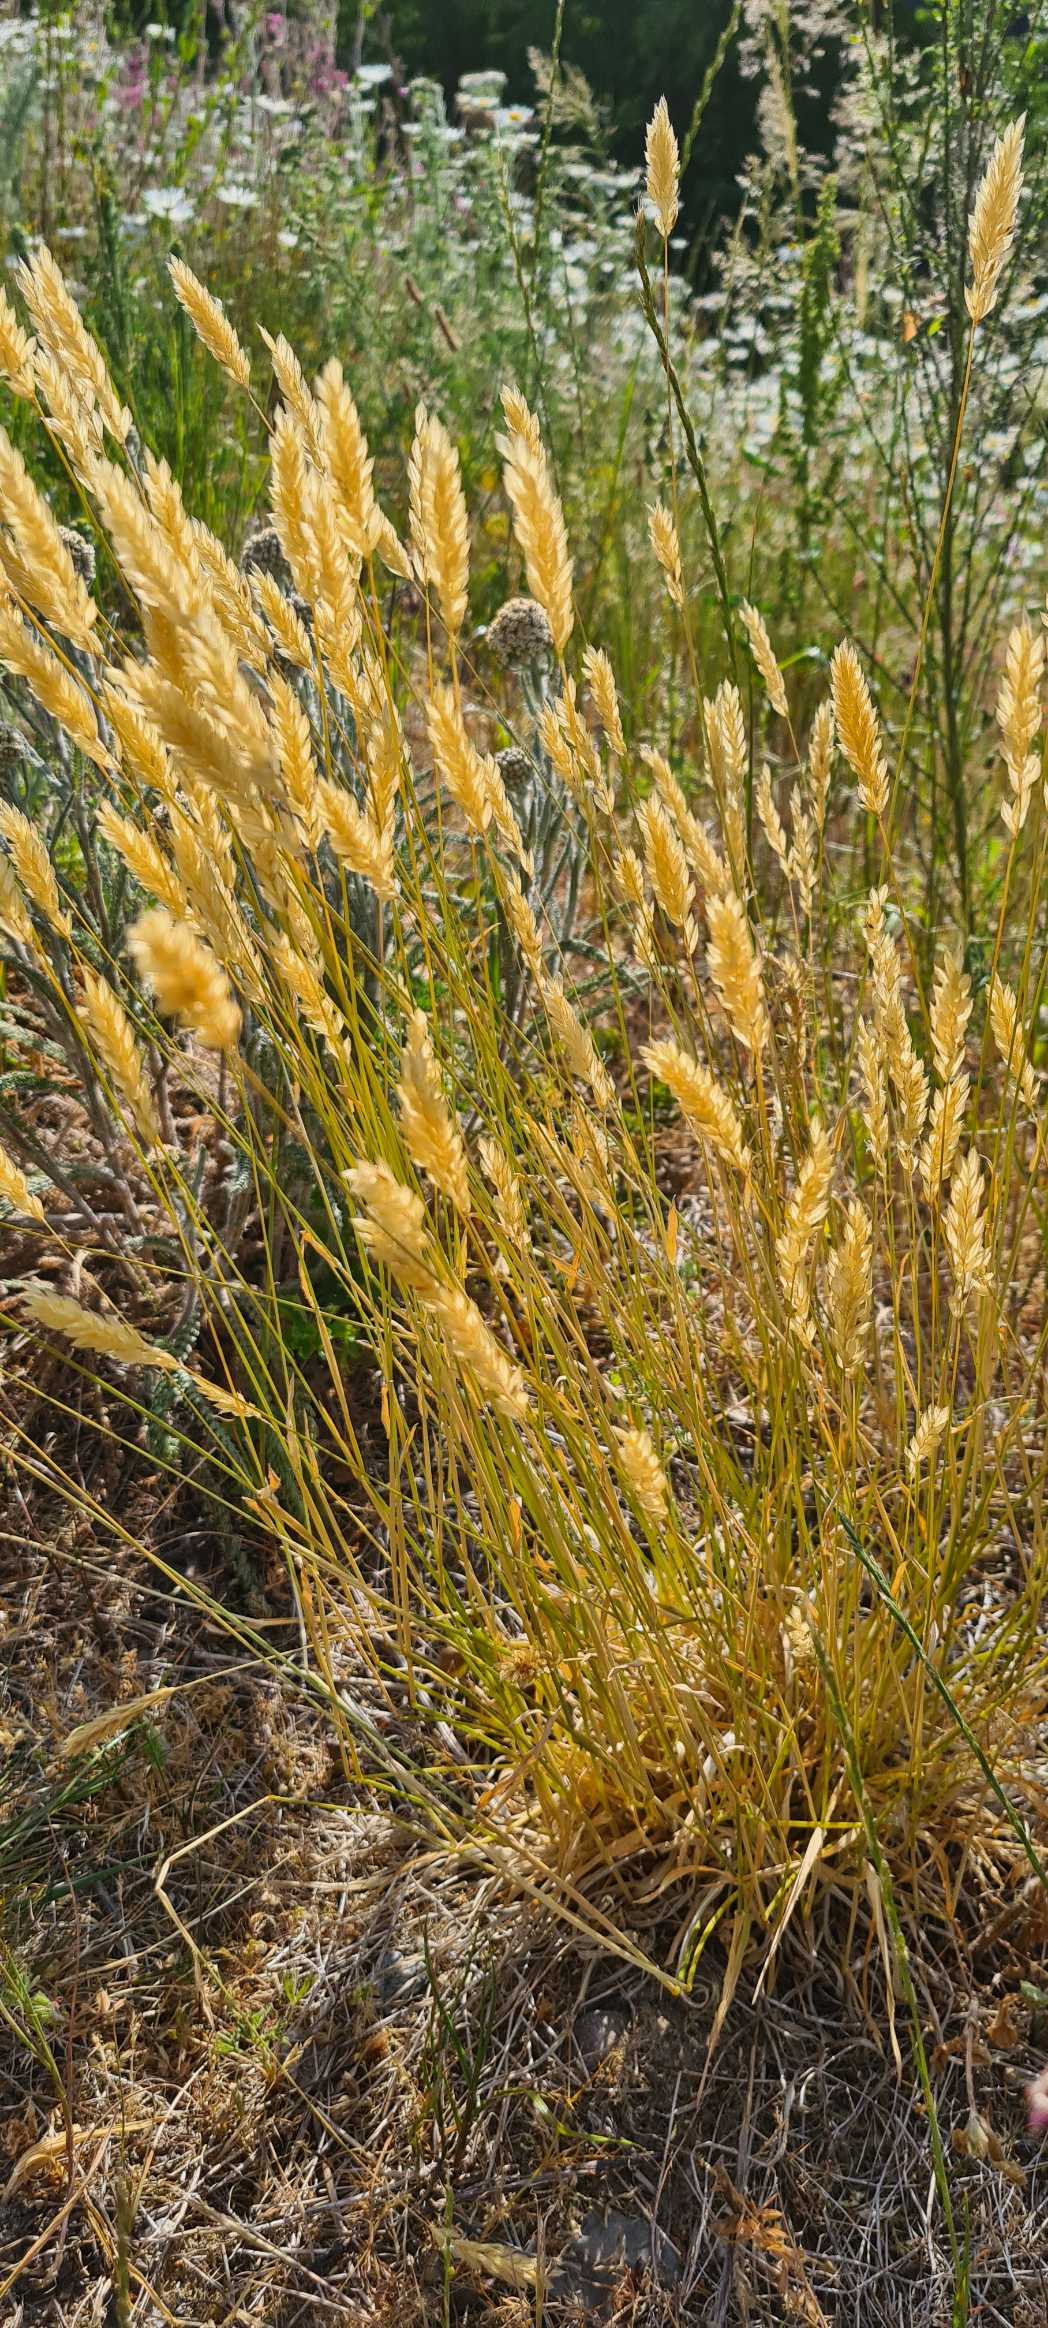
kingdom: Plantae
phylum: Tracheophyta
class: Liliopsida
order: Poales
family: Poaceae
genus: Anthoxanthum
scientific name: Anthoxanthum odoratum
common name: Vellugtende gulaks
